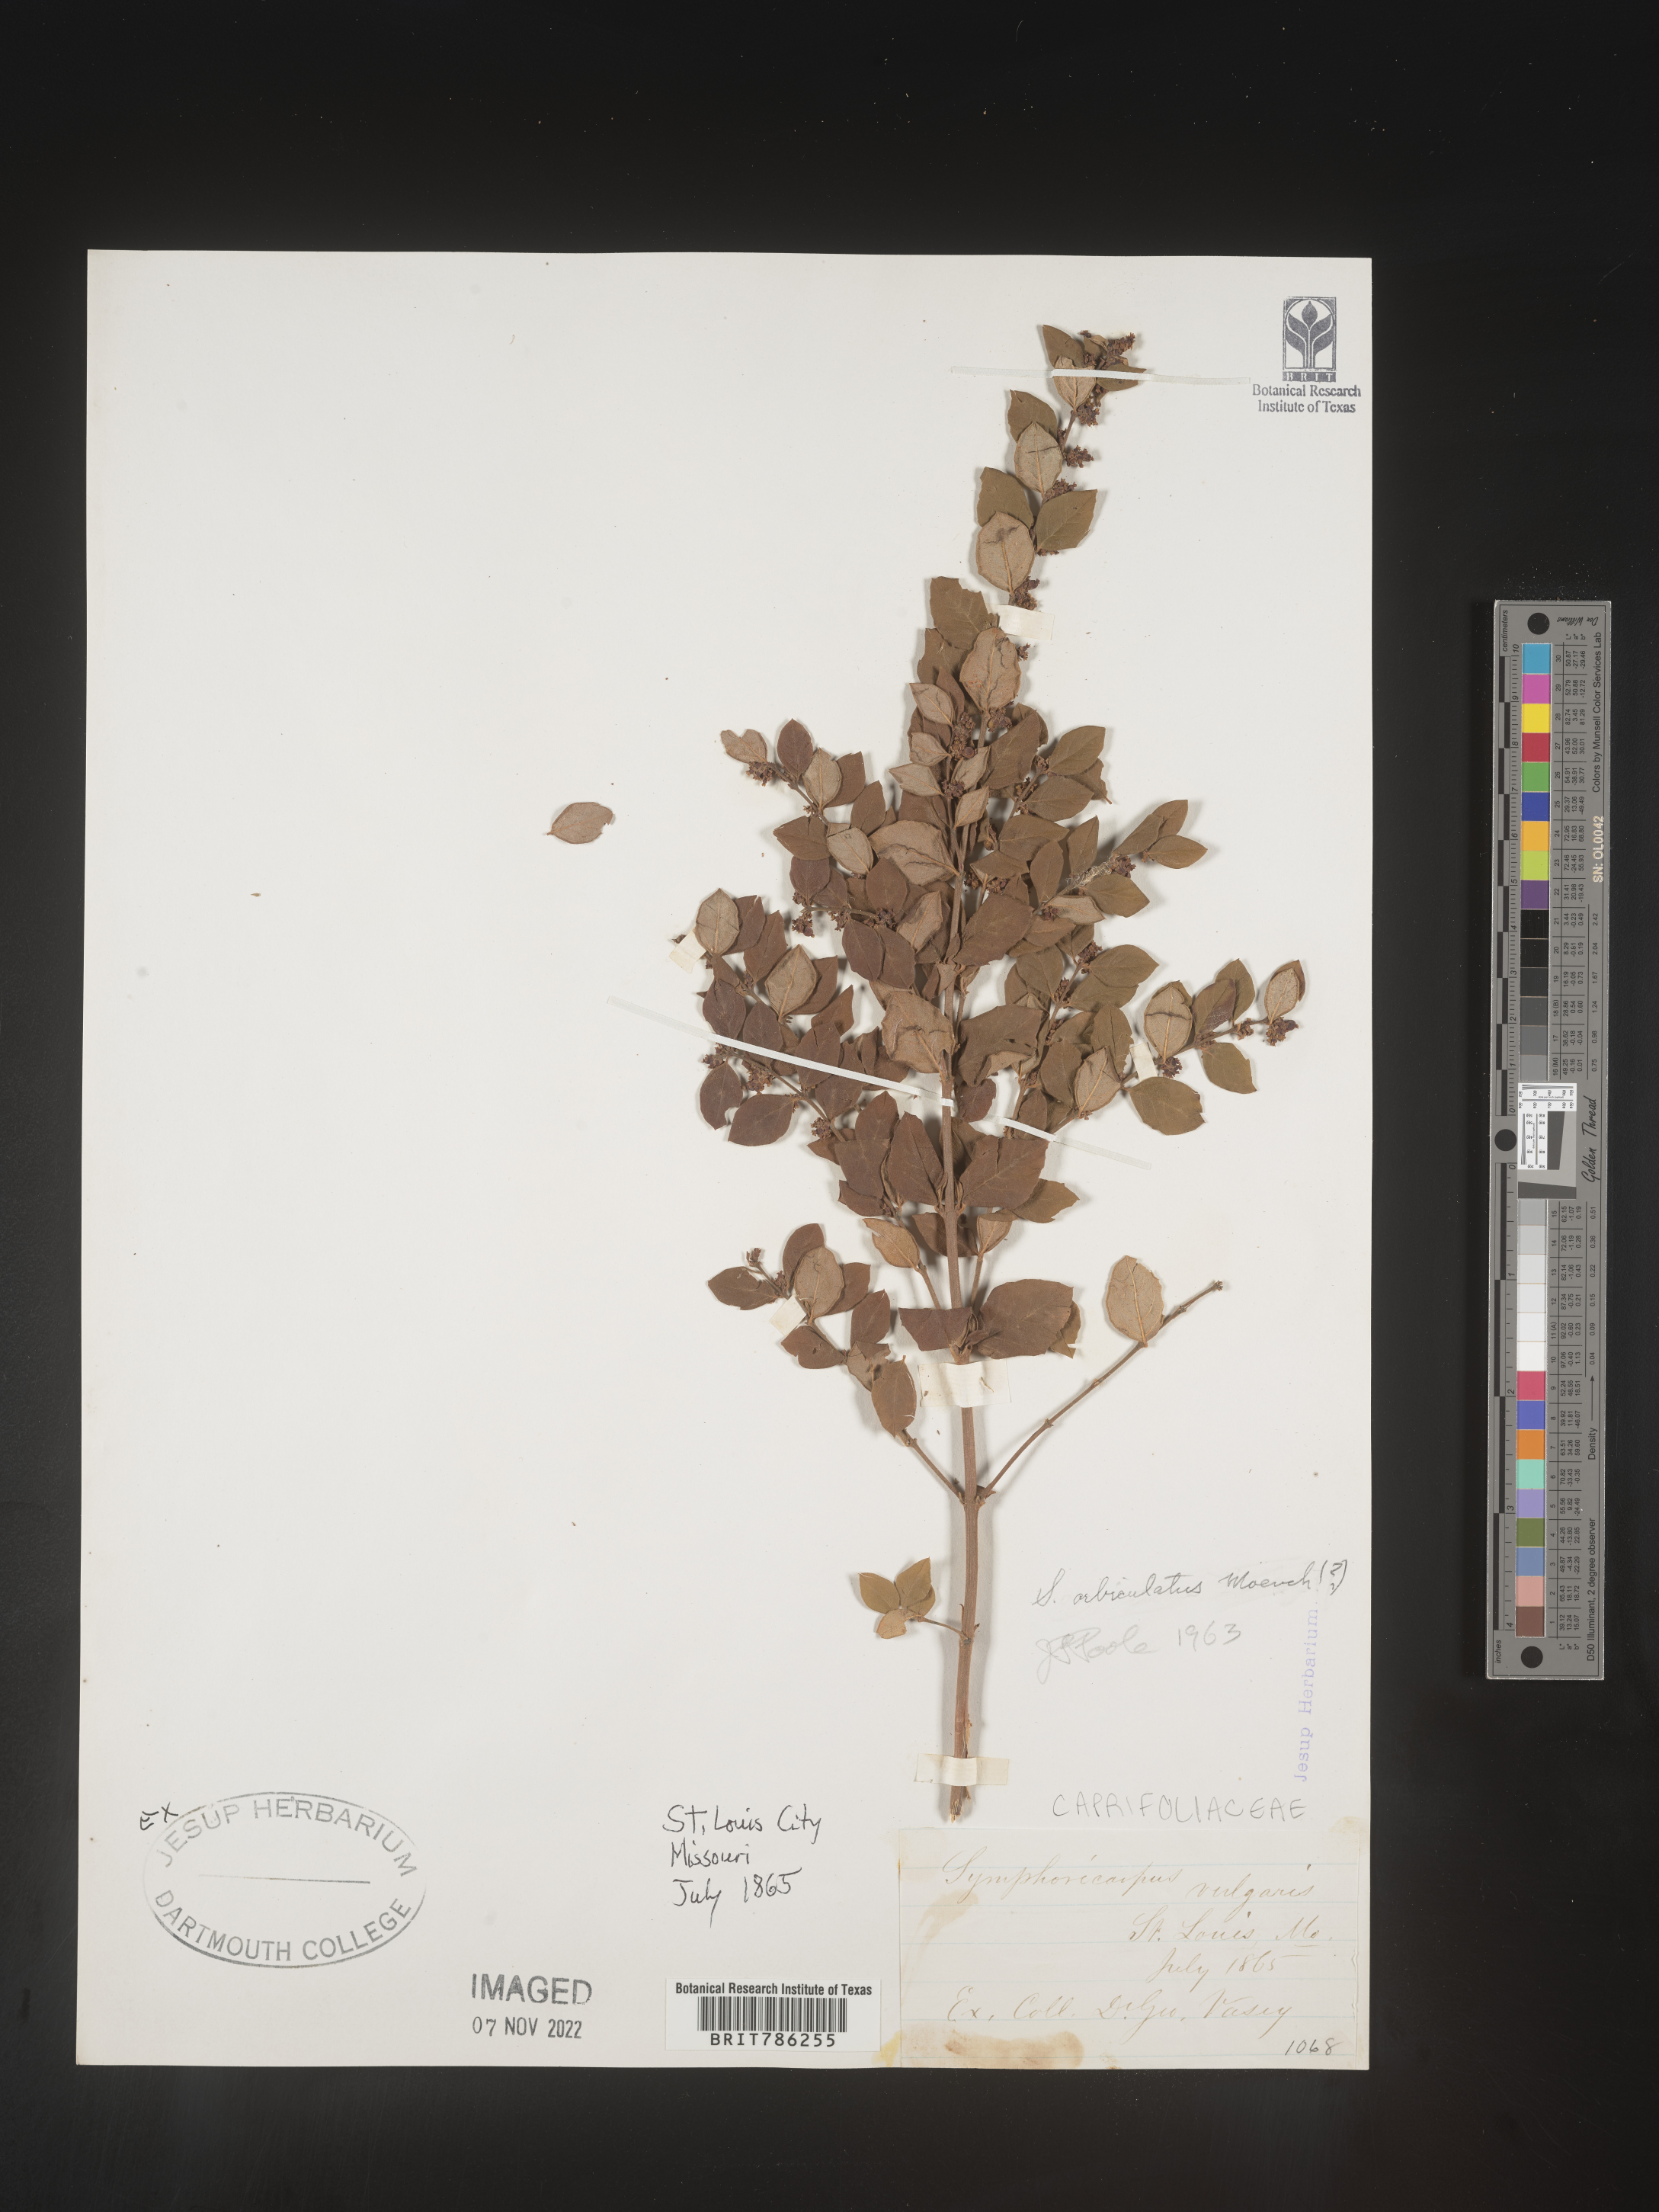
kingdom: Plantae
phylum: Tracheophyta
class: Magnoliopsida
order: Dipsacales
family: Caprifoliaceae
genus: Symphoricarpos
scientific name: Symphoricarpos orbiculatus
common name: Coralberry
